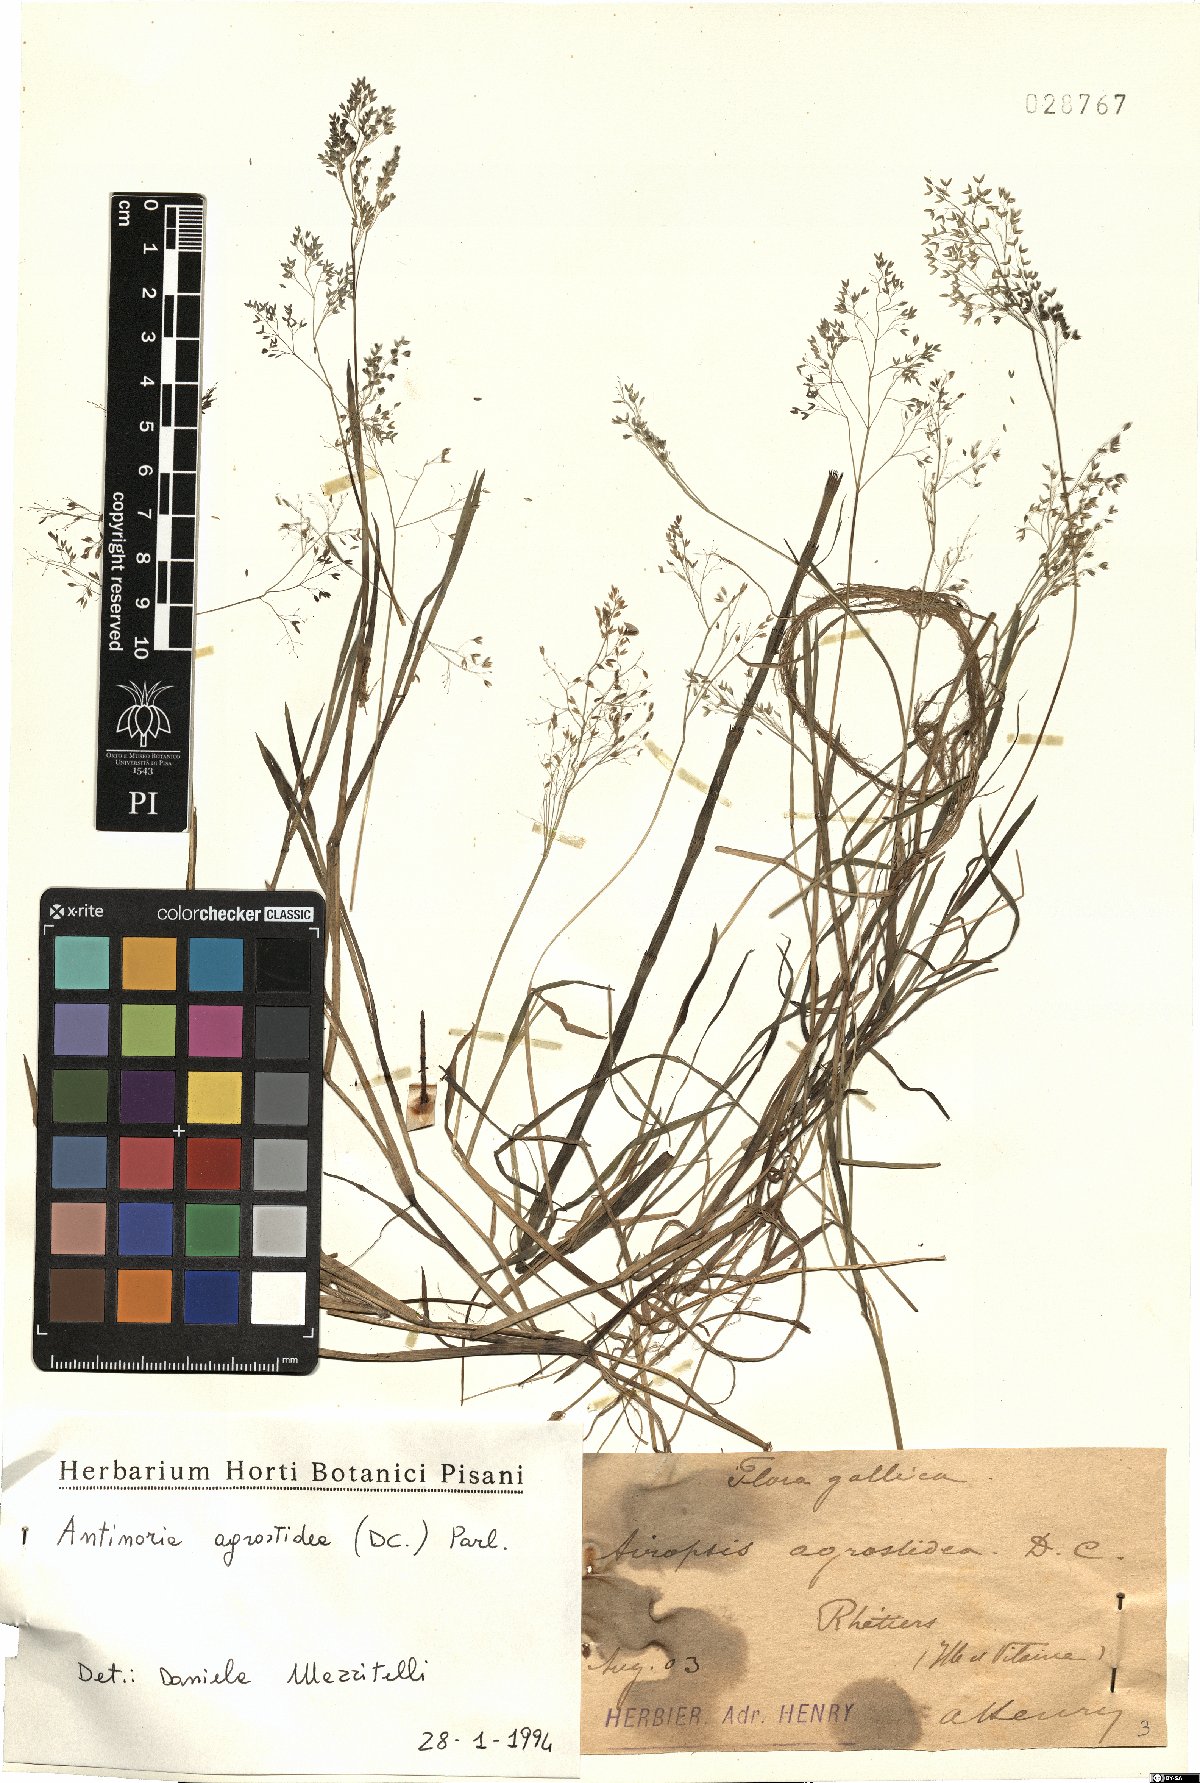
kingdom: Plantae
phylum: Tracheophyta
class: Liliopsida
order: Poales
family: Poaceae
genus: Antinoria
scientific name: Antinoria agrostidea
